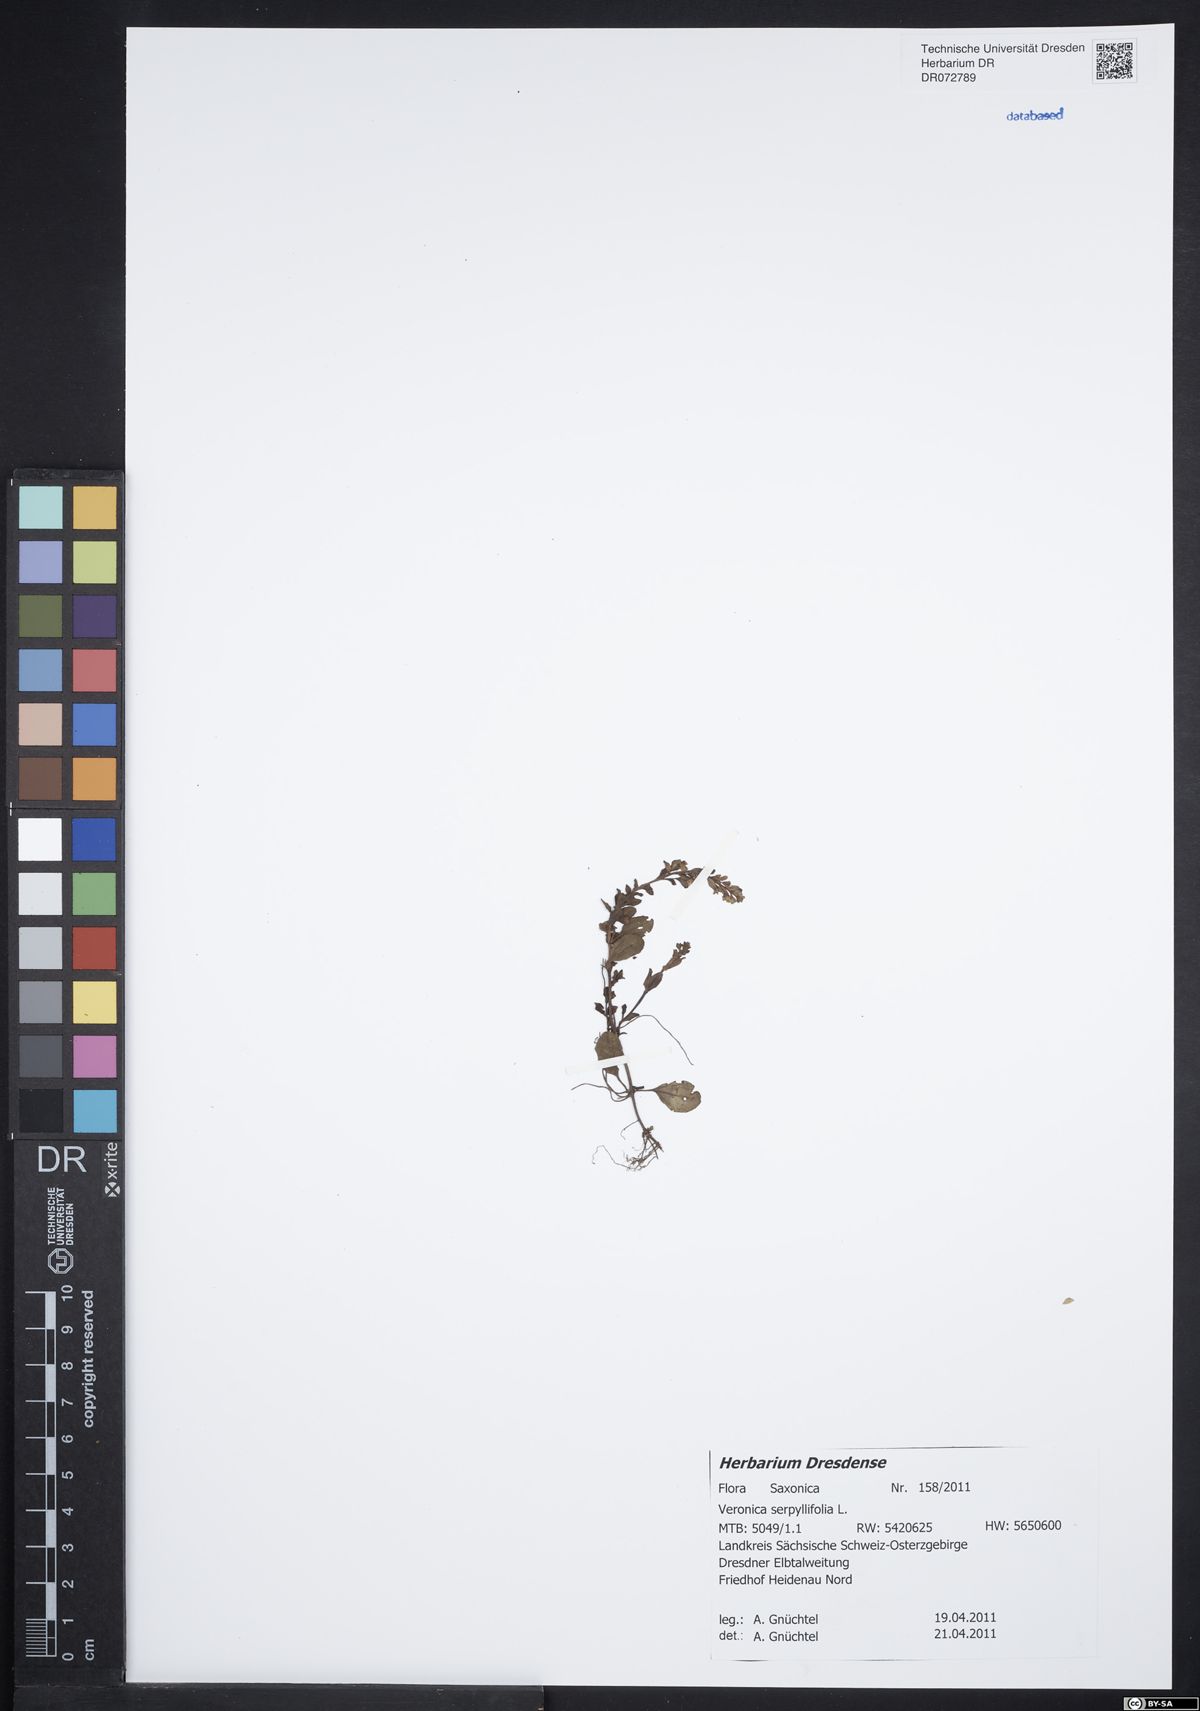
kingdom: Plantae
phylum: Tracheophyta
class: Magnoliopsida
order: Lamiales
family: Plantaginaceae
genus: Veronica
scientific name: Veronica serpyllifolia
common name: Thyme-leaved speedwell
